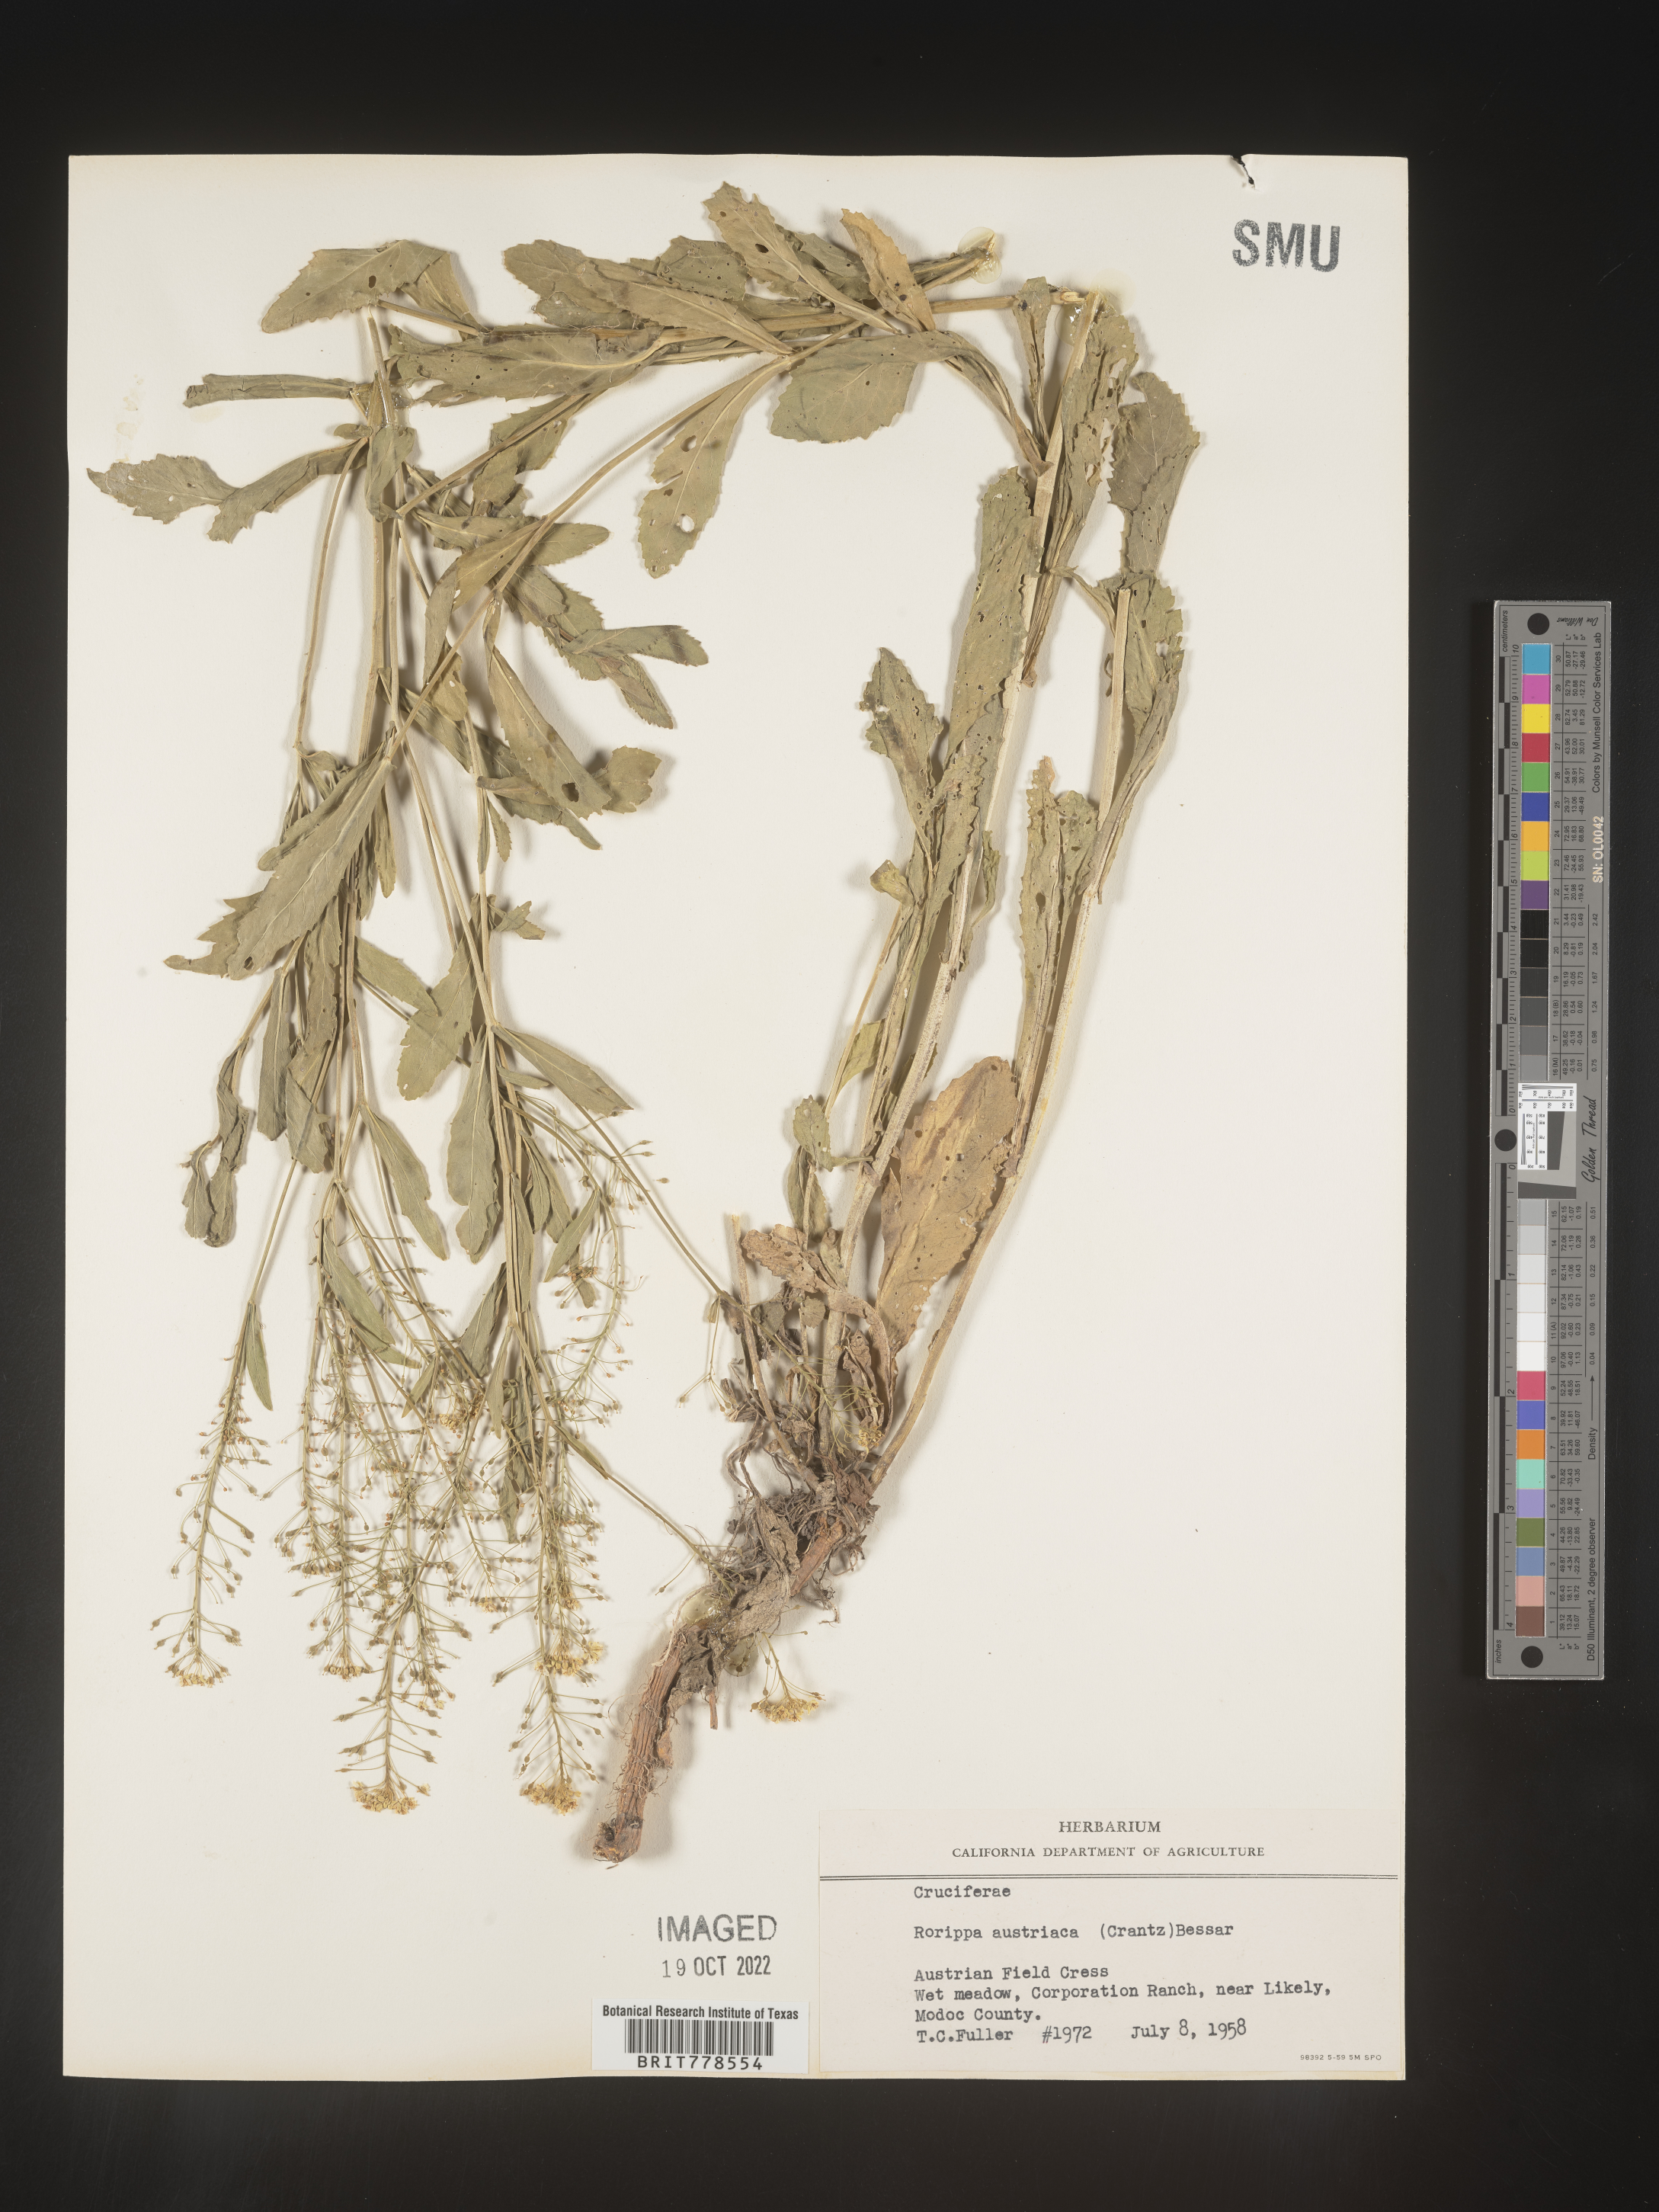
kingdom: Plantae
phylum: Tracheophyta
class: Magnoliopsida
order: Brassicales
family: Brassicaceae
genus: Rorippa
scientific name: Rorippa
